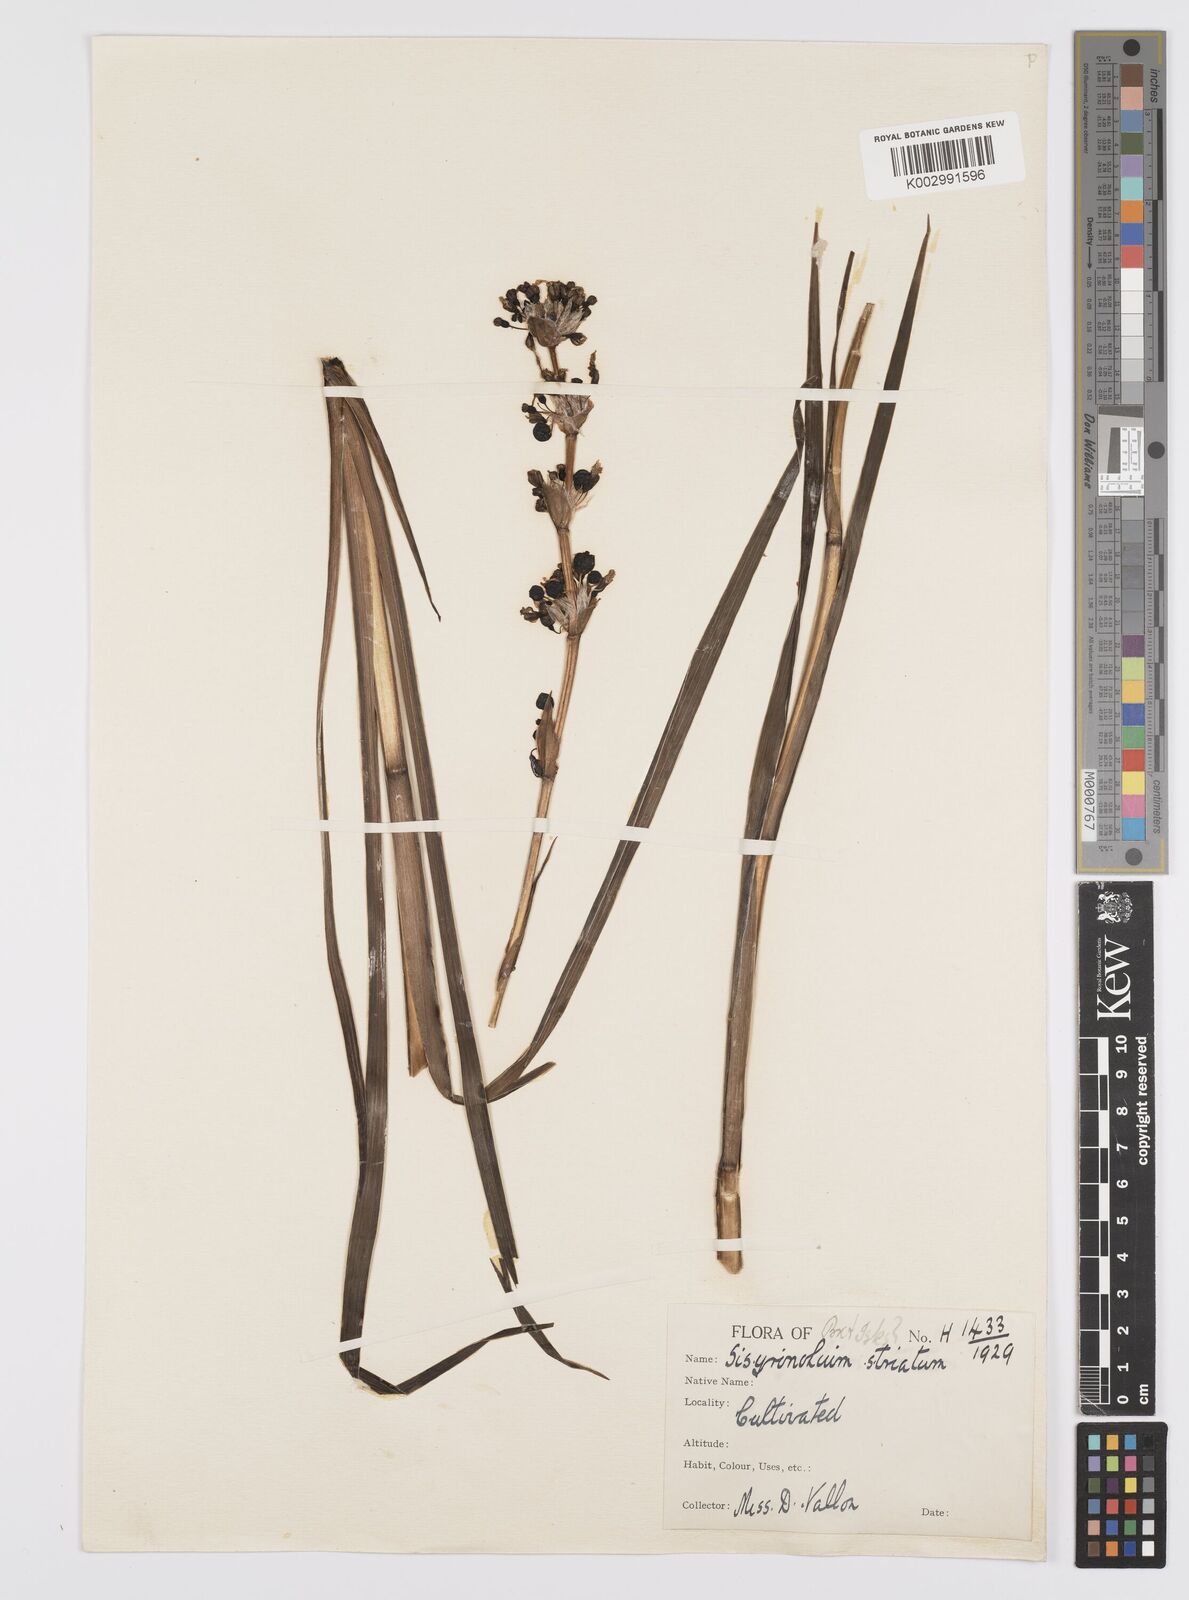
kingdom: Plantae
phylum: Tracheophyta
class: Liliopsida
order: Asparagales
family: Iridaceae
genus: Sisyrinchium
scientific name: Sisyrinchium striatum
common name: Pale yellow-eyed-grass
